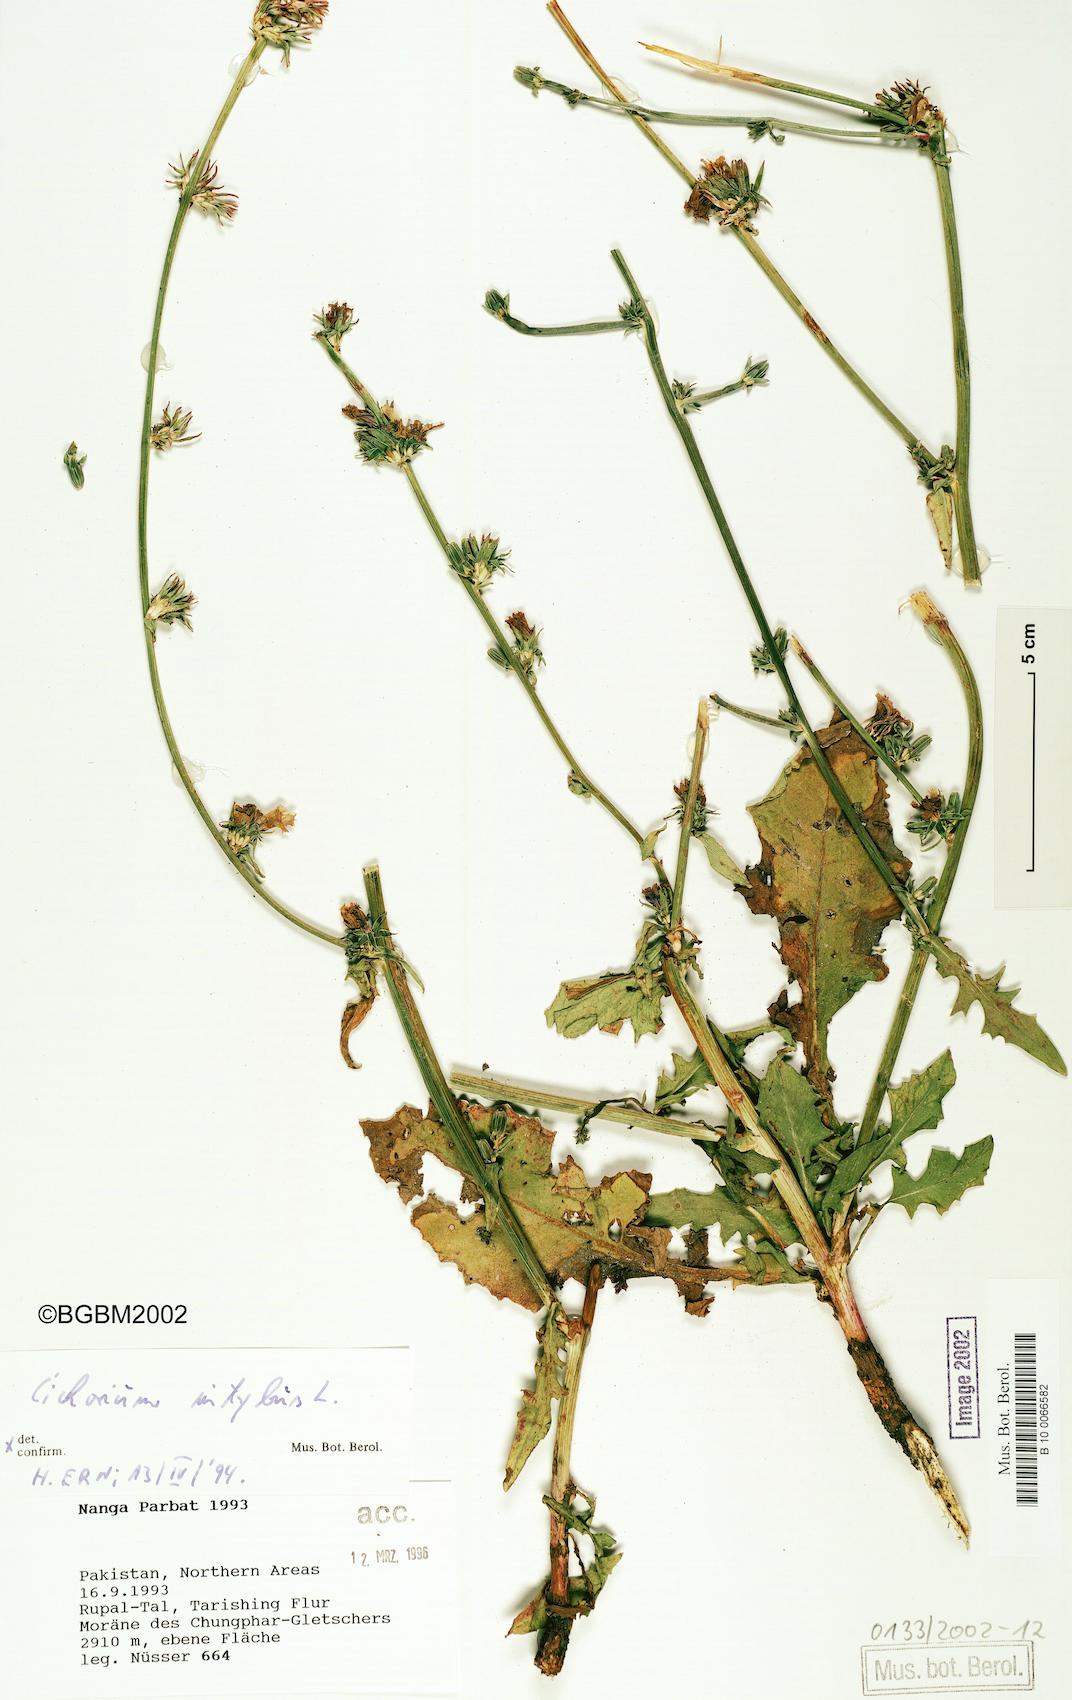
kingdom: Plantae
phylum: Tracheophyta
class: Magnoliopsida
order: Asterales
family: Asteraceae
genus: Cichorium
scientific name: Cichorium intybus
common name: Chicory
